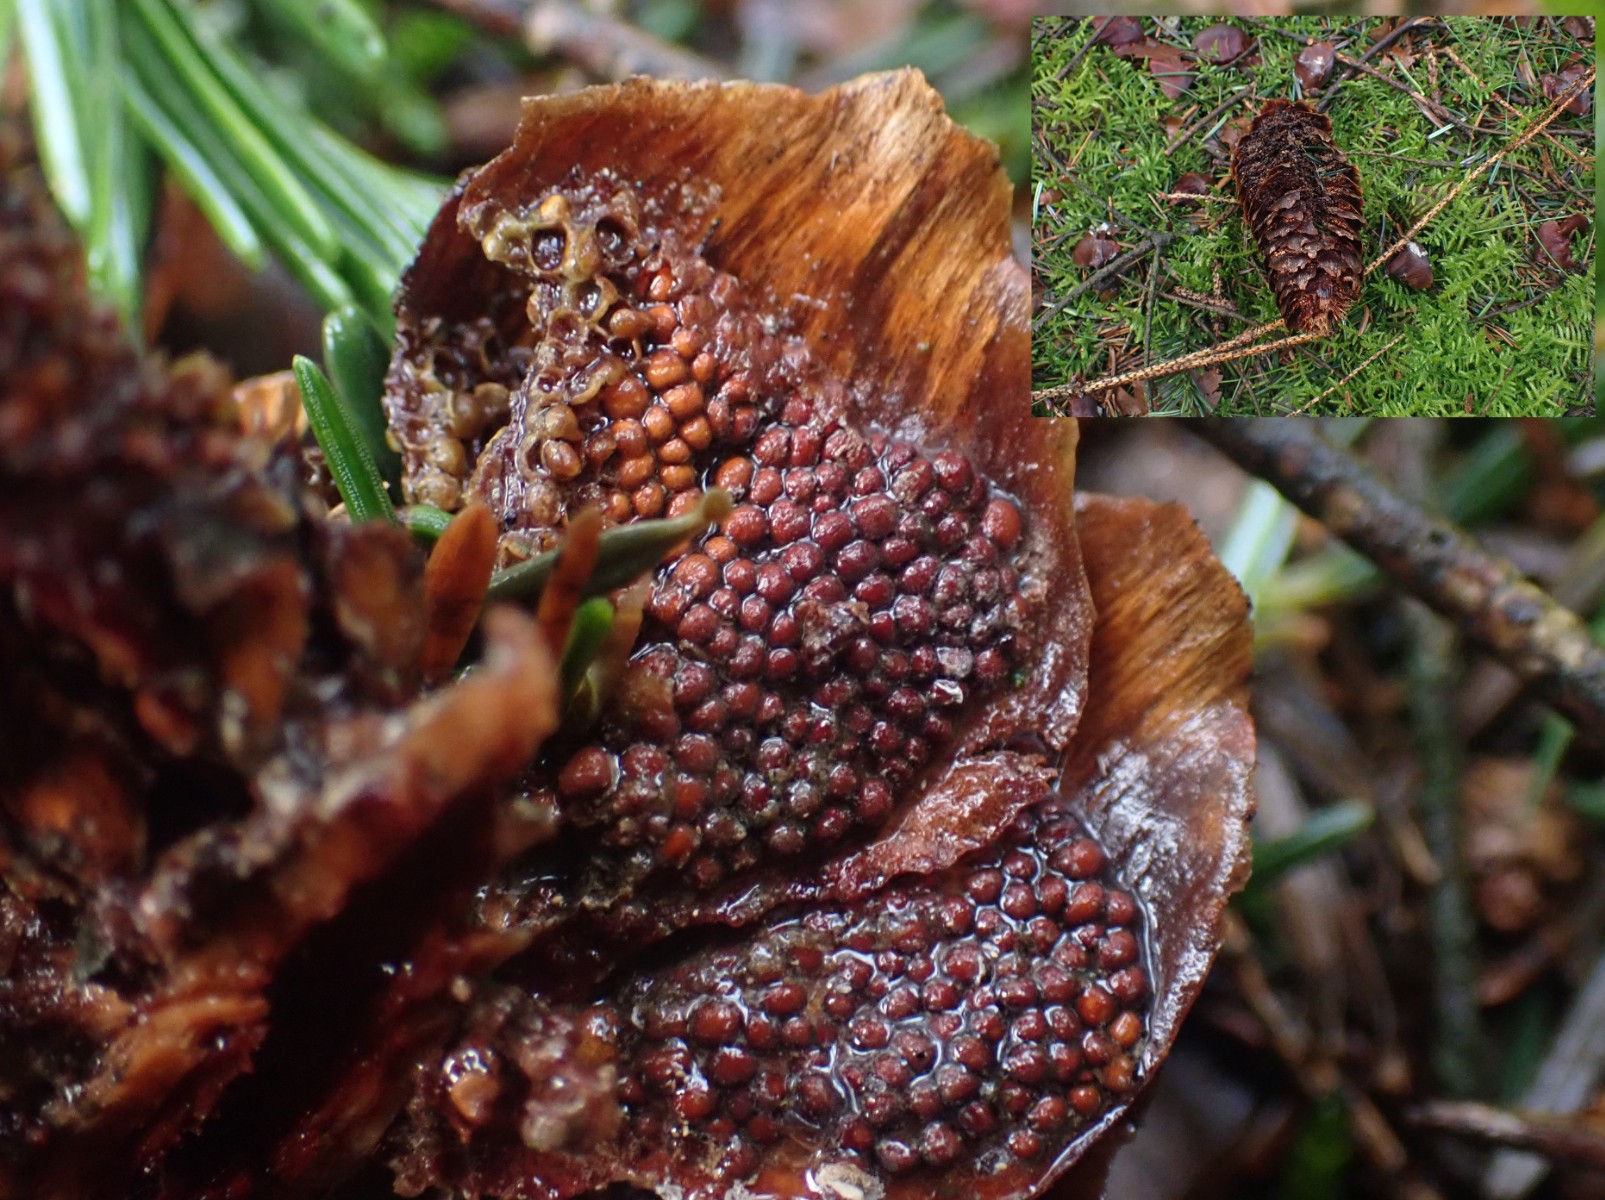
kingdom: Fungi
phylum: Basidiomycota
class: Pucciniomycetes
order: Pucciniales
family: Pucciniastraceae
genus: Thekopsora
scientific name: Thekopsora areolata
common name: grankogle-nålerust
